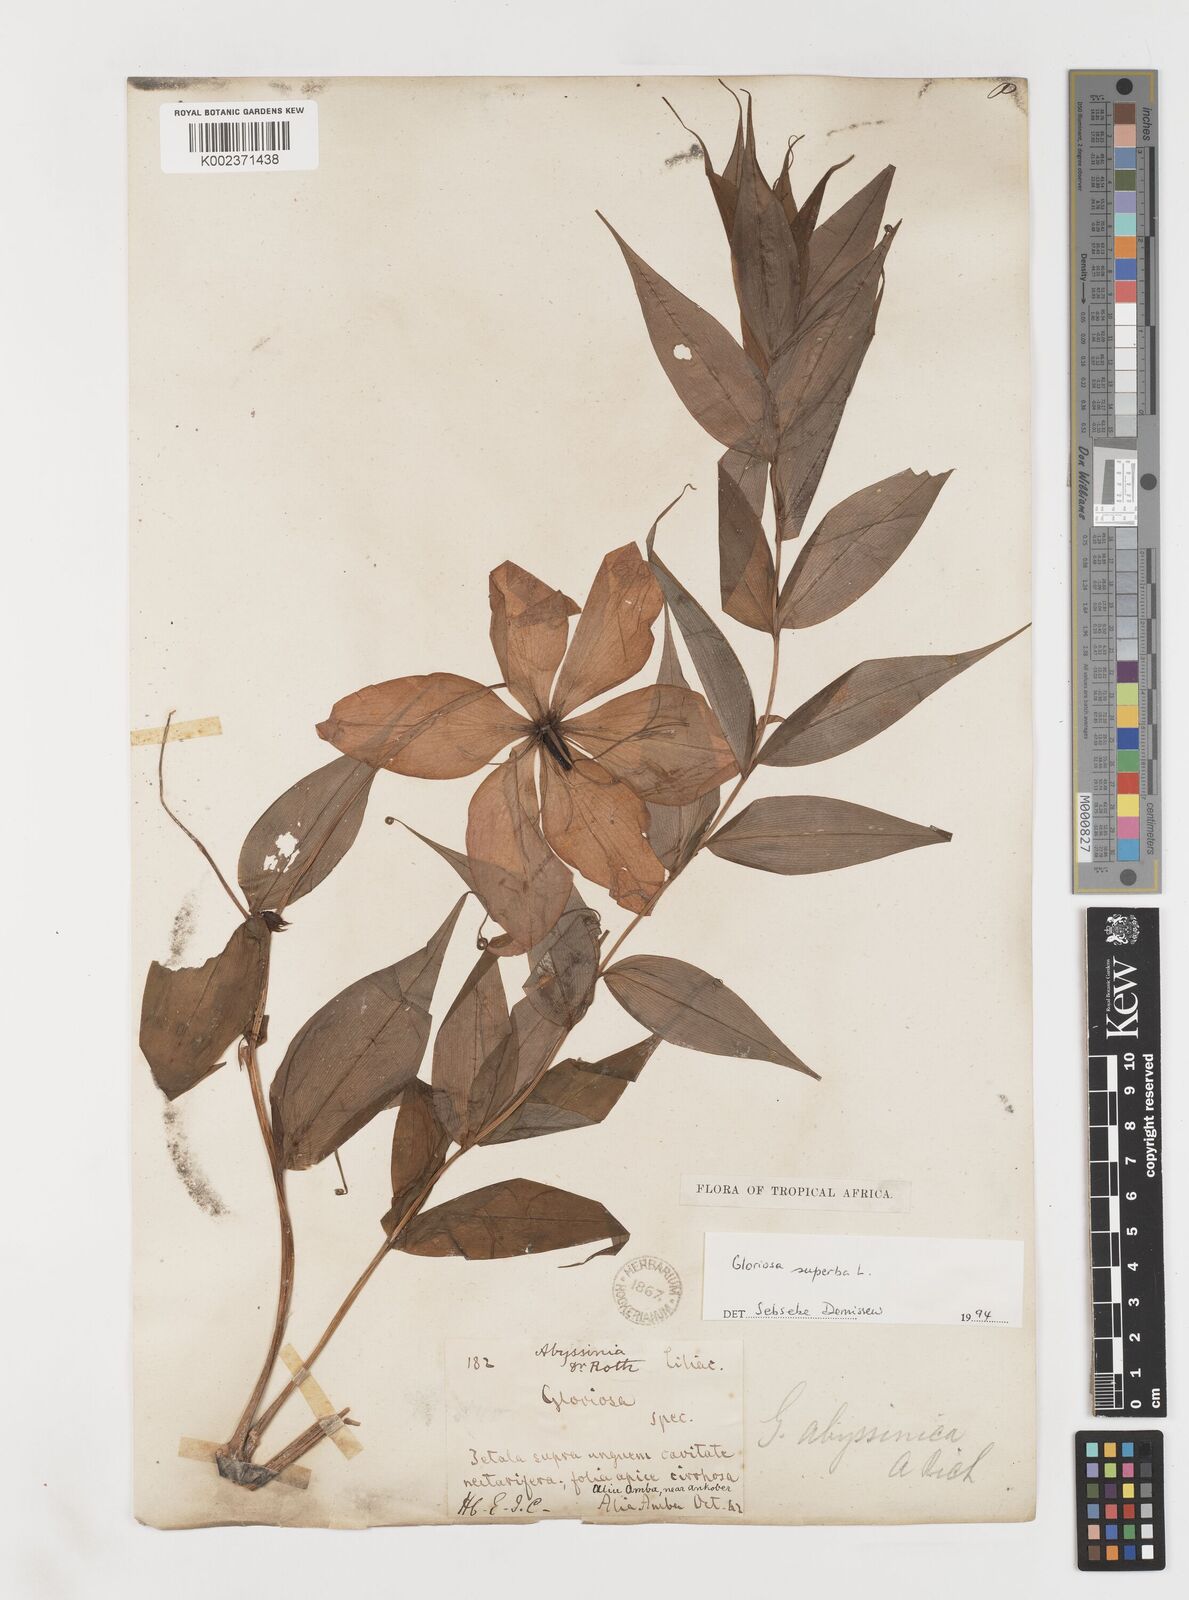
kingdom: Plantae
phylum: Tracheophyta
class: Liliopsida
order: Liliales
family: Colchicaceae
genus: Gloriosa
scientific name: Gloriosa simplex
